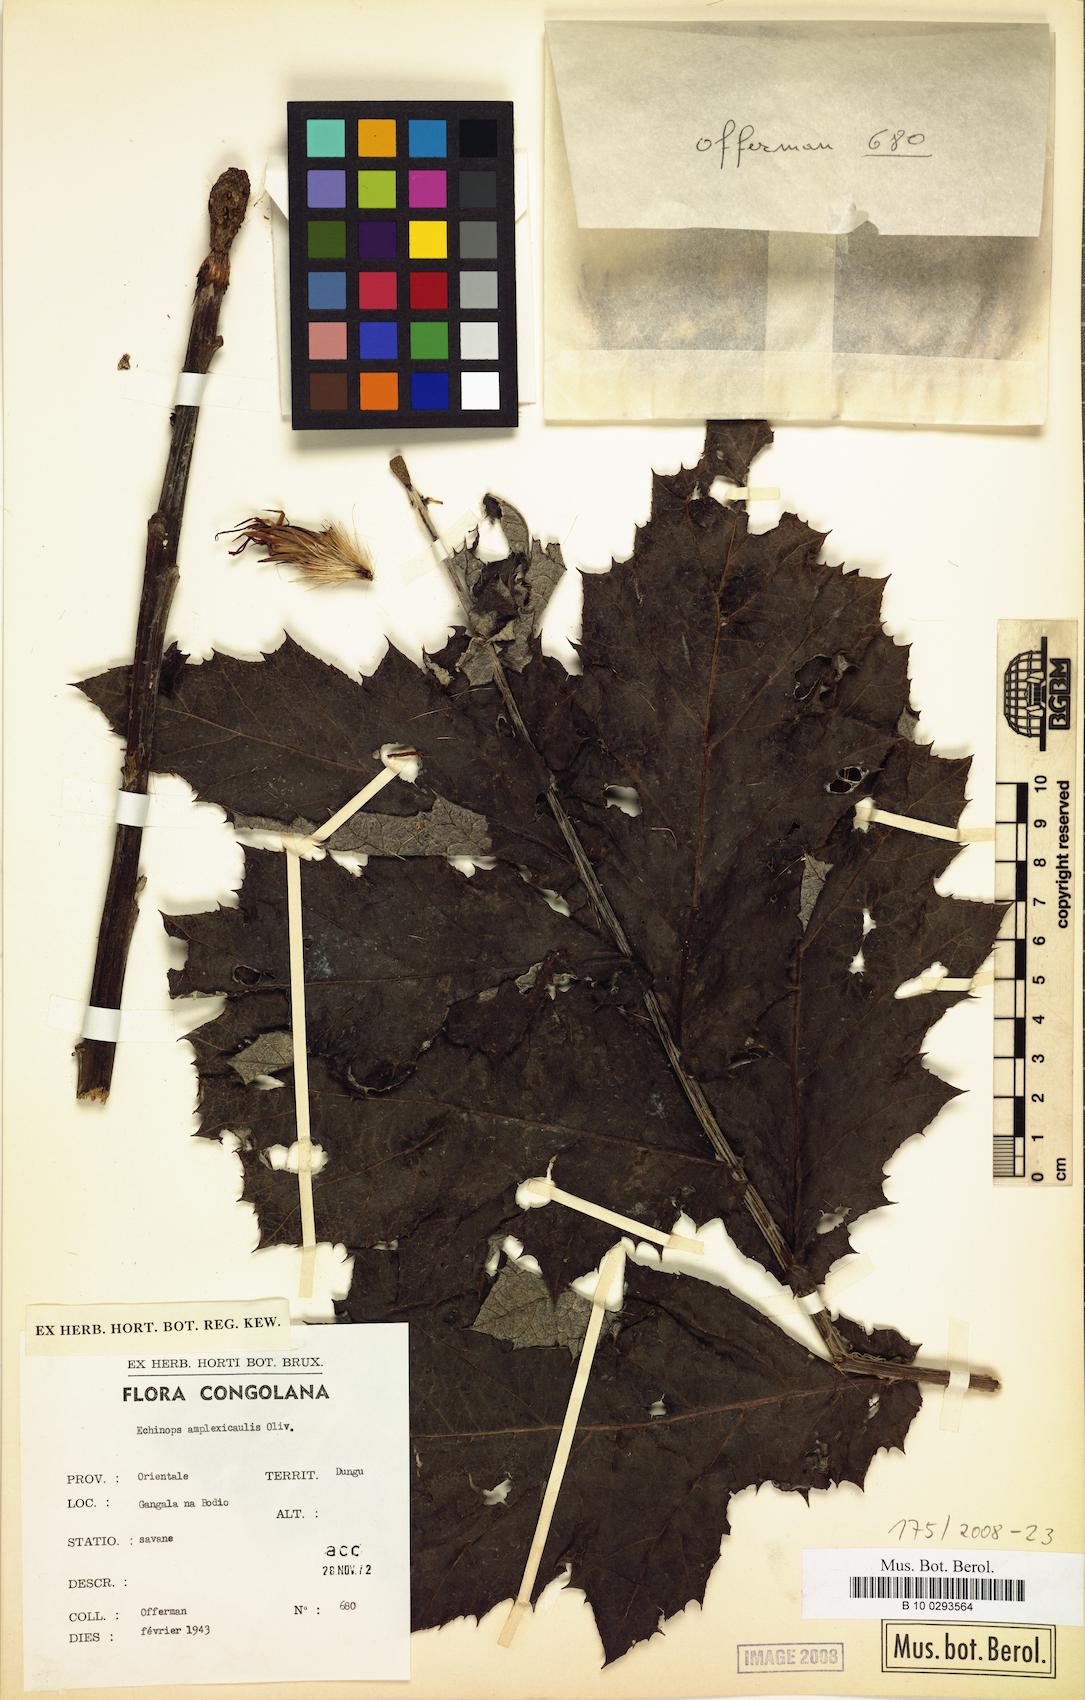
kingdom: Plantae
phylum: Tracheophyta
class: Magnoliopsida
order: Asterales
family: Asteraceae
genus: Echinops
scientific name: Echinops amplexicaulis
